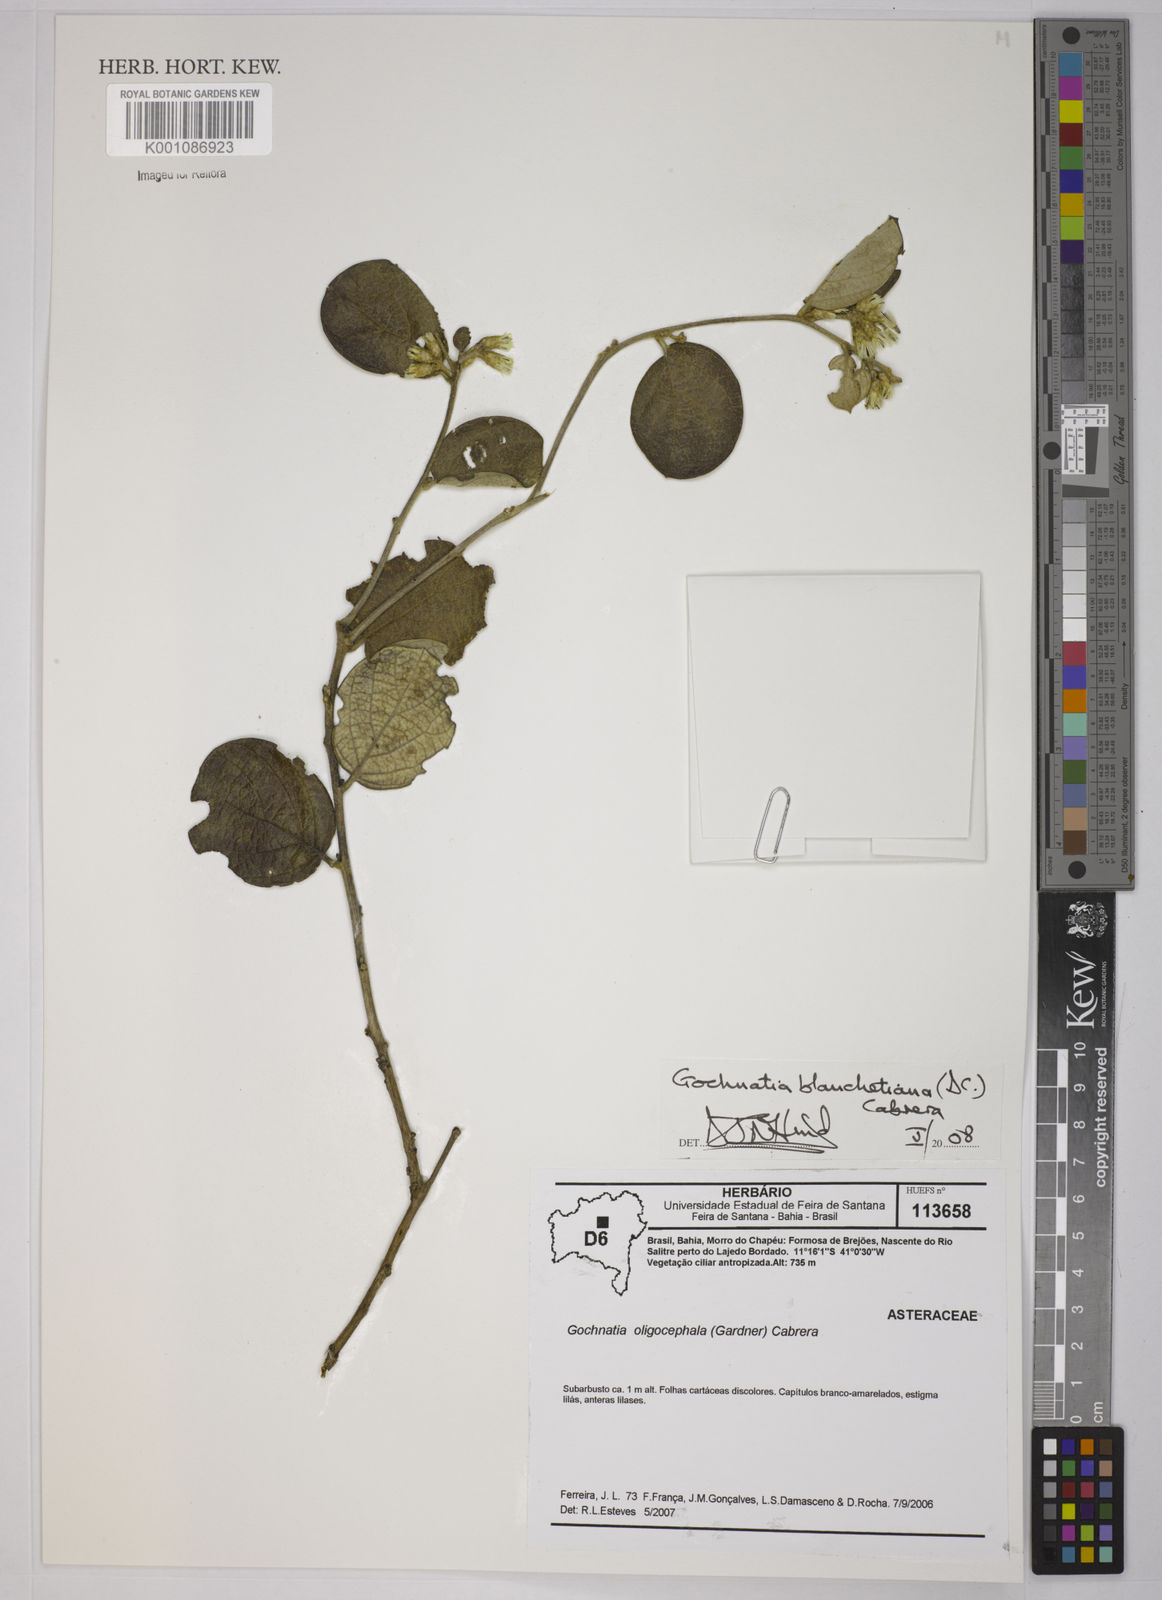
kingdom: Plantae
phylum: Tracheophyta
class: Magnoliopsida
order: Asterales
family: Asteraceae
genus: Moquiniastrum
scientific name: Moquiniastrum blanchetianum
